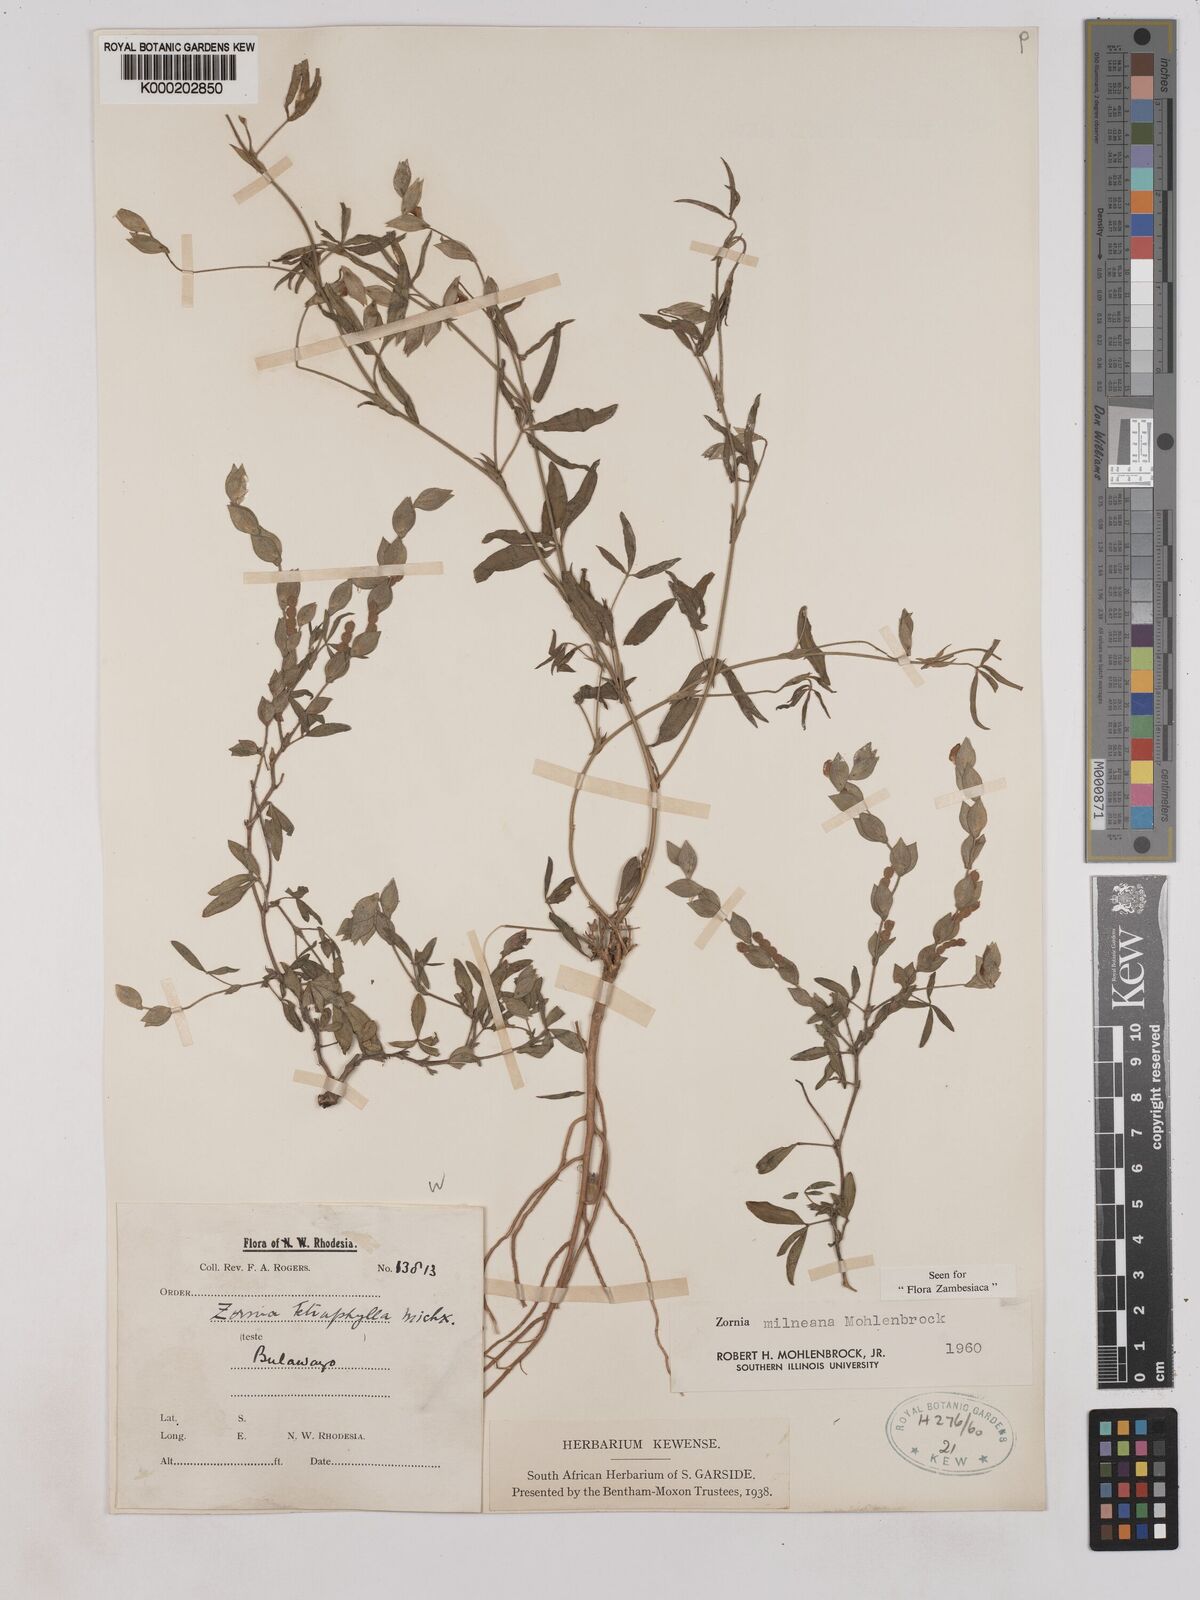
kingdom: Plantae
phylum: Tracheophyta
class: Magnoliopsida
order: Fabales
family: Fabaceae
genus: Zornia
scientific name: Zornia milneana
